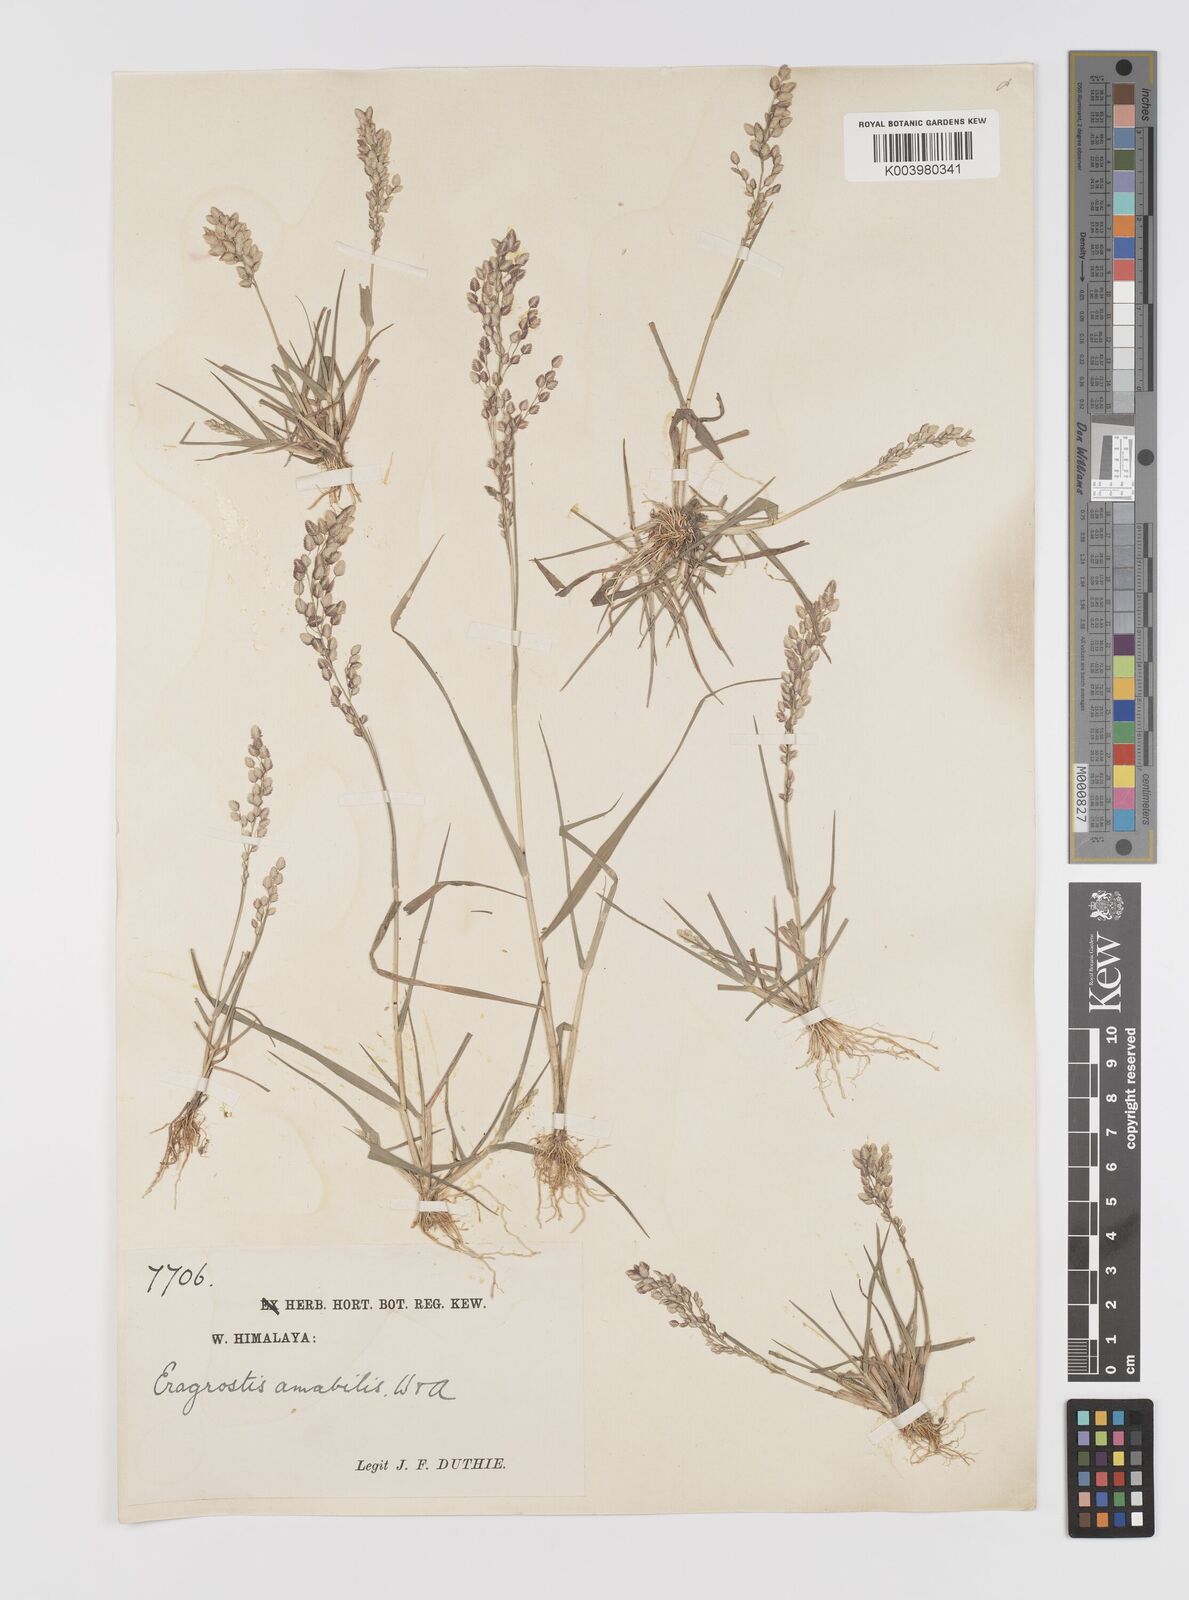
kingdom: Plantae
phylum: Tracheophyta
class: Liliopsida
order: Poales
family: Poaceae
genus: Eragrostis
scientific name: Eragrostis unioloides
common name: Chinese lovegrass
